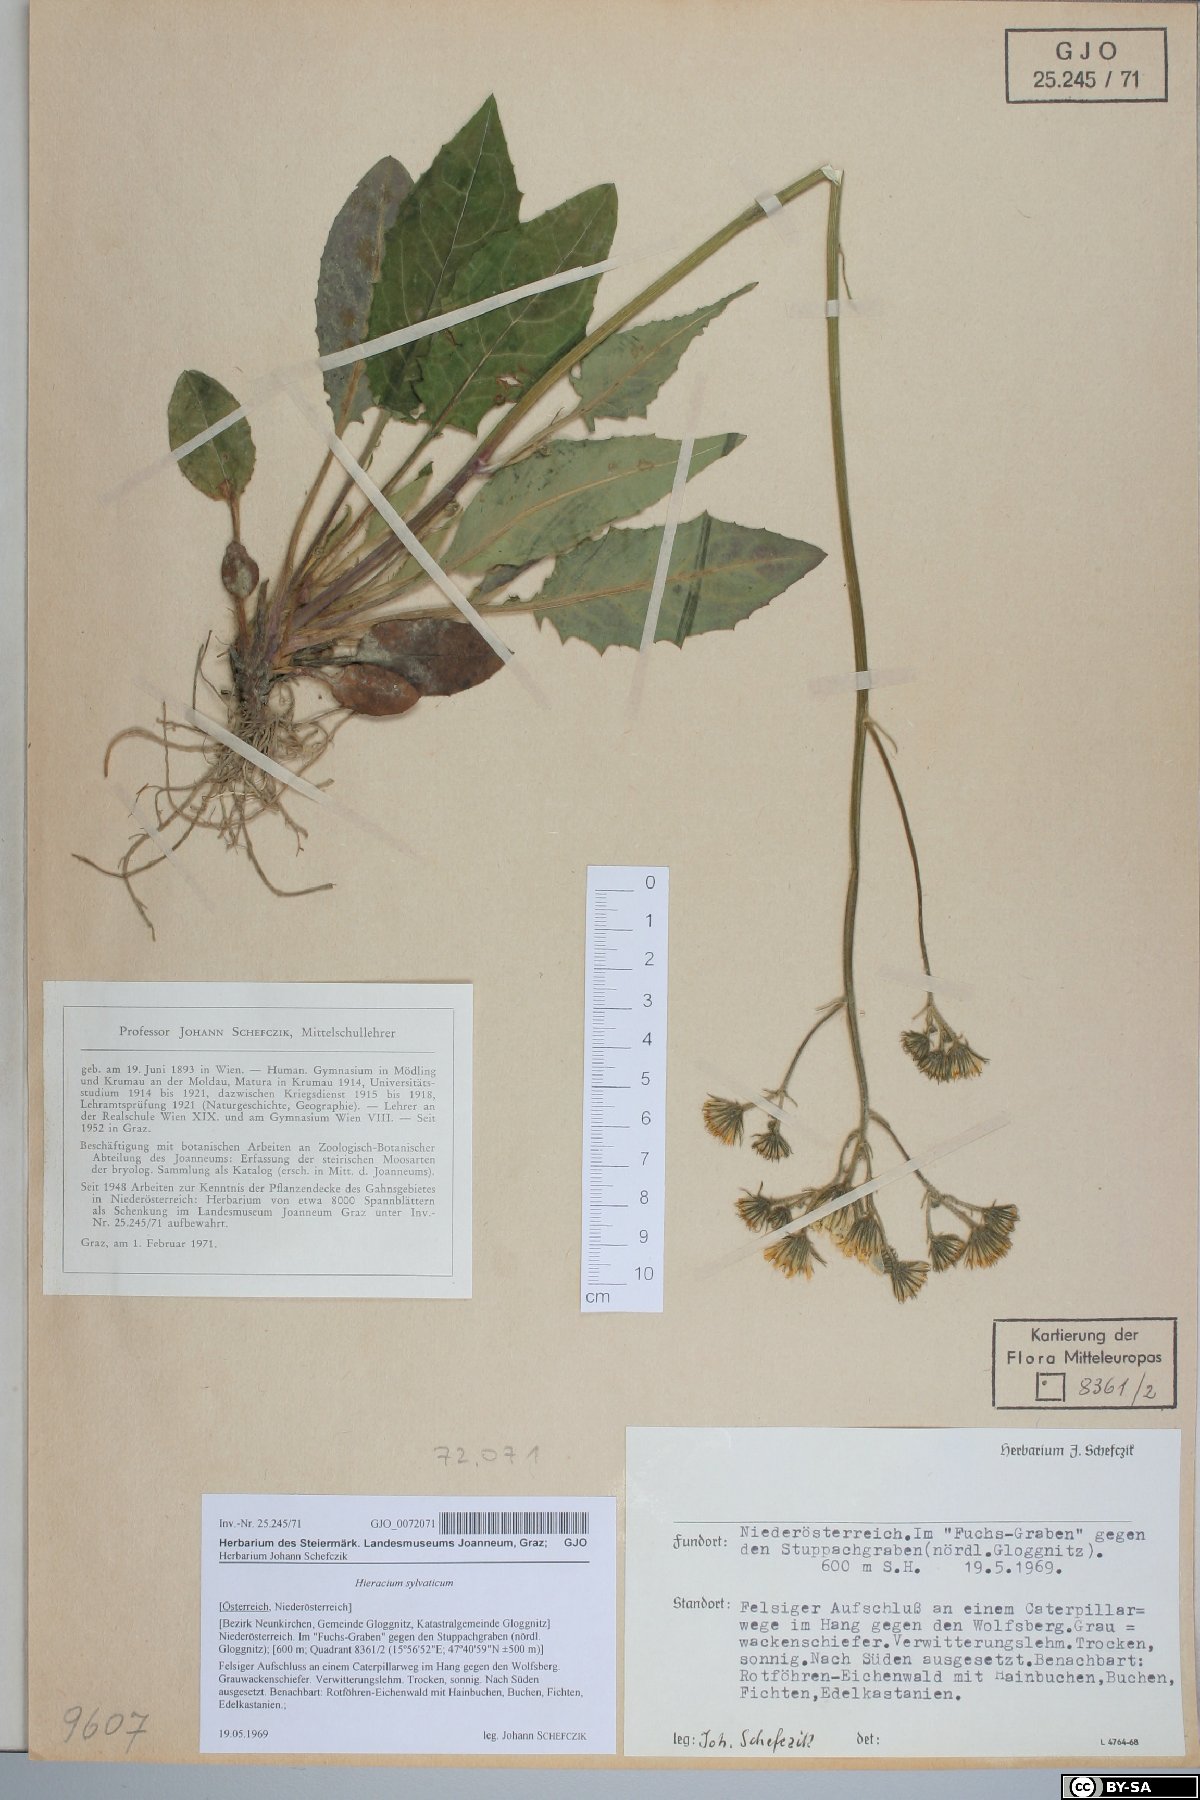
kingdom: Plantae
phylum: Tracheophyta
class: Magnoliopsida
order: Asterales
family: Asteraceae
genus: Hieracium
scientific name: Hieracium murorum
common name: Wall hawkweed
